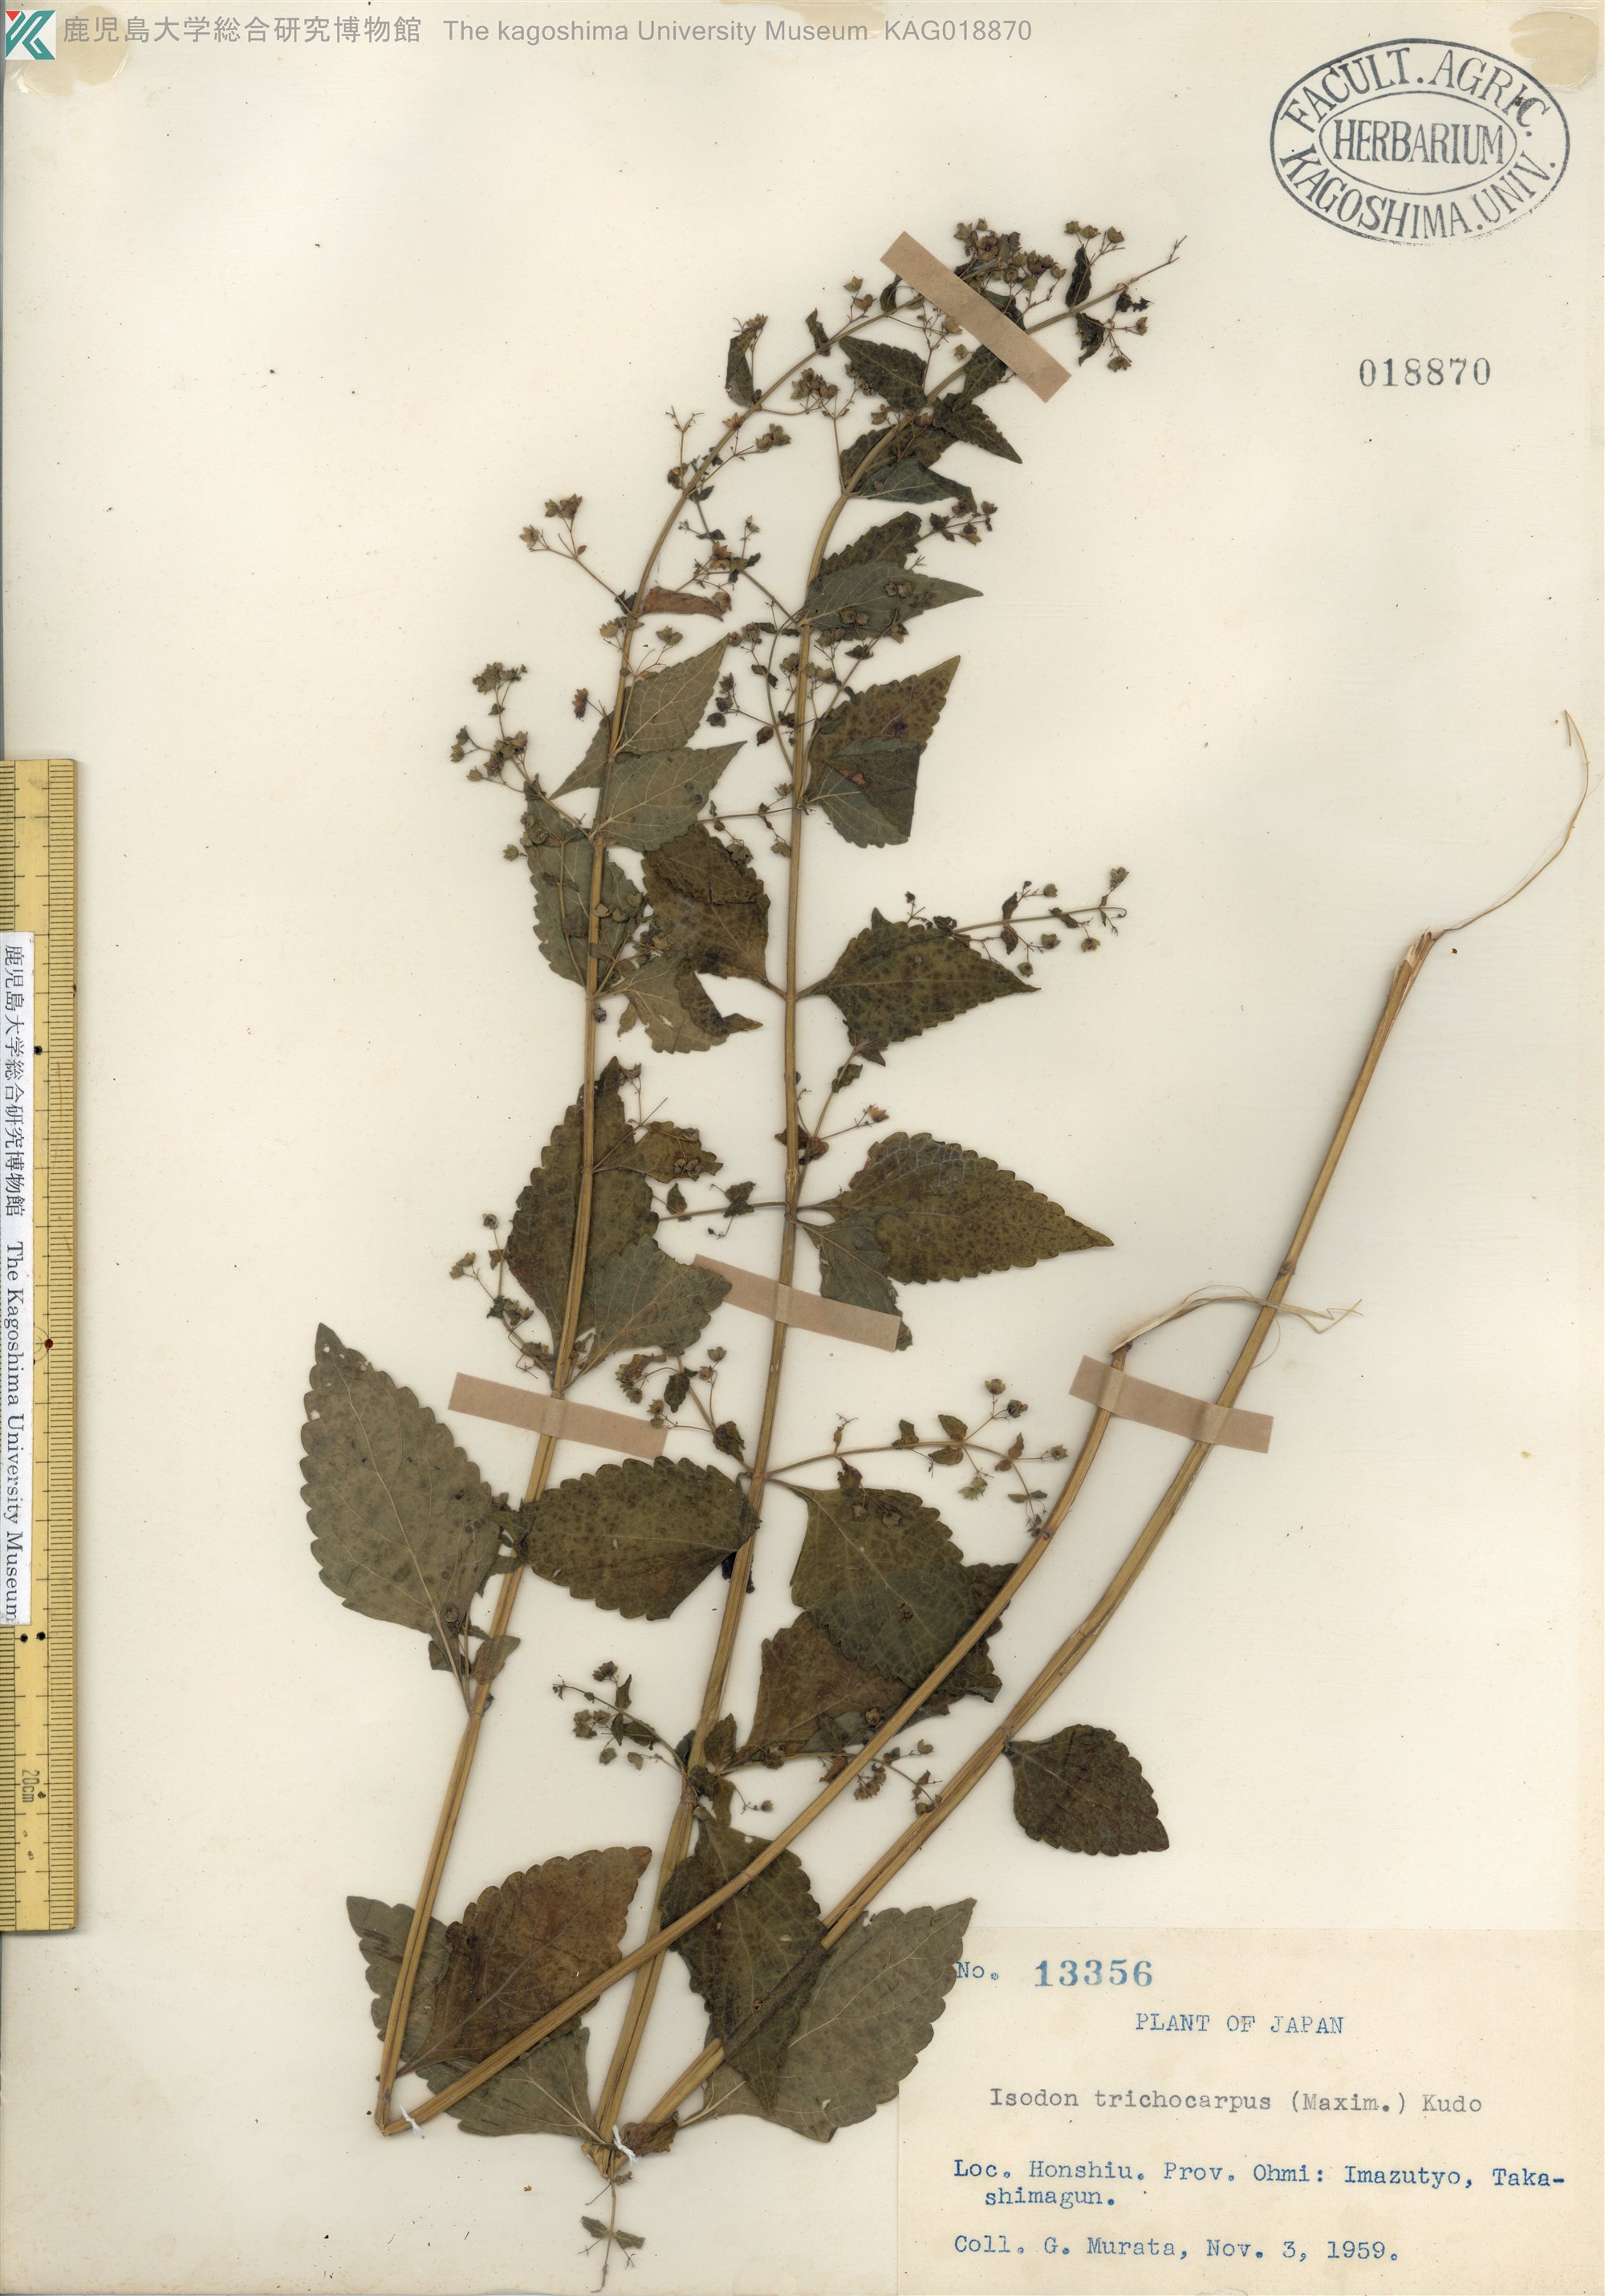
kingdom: Plantae
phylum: Tracheophyta
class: Magnoliopsida
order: Lamiales
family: Lamiaceae
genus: Isodon
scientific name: Isodon trichocarpus
